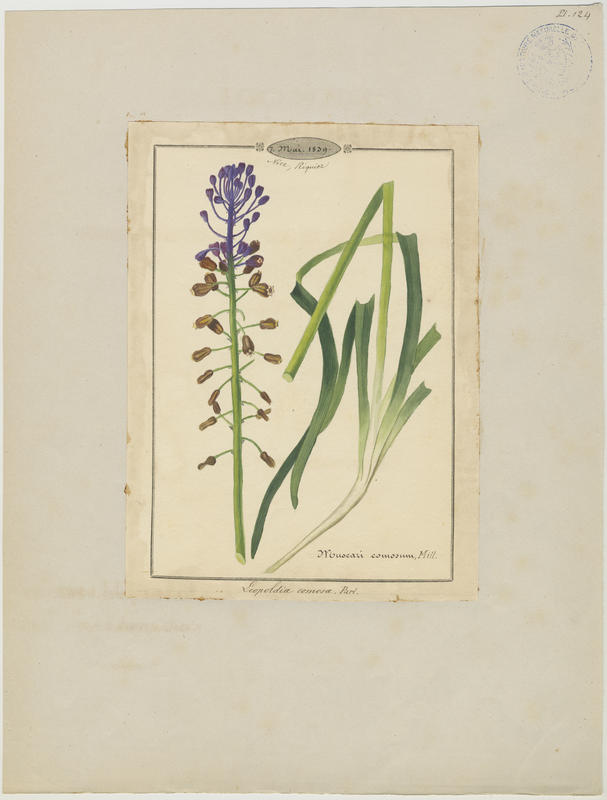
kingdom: Plantae
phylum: Tracheophyta
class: Liliopsida
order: Asparagales
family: Asparagaceae
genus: Muscari
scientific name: Muscari comosum
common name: Tassel hyacinth
